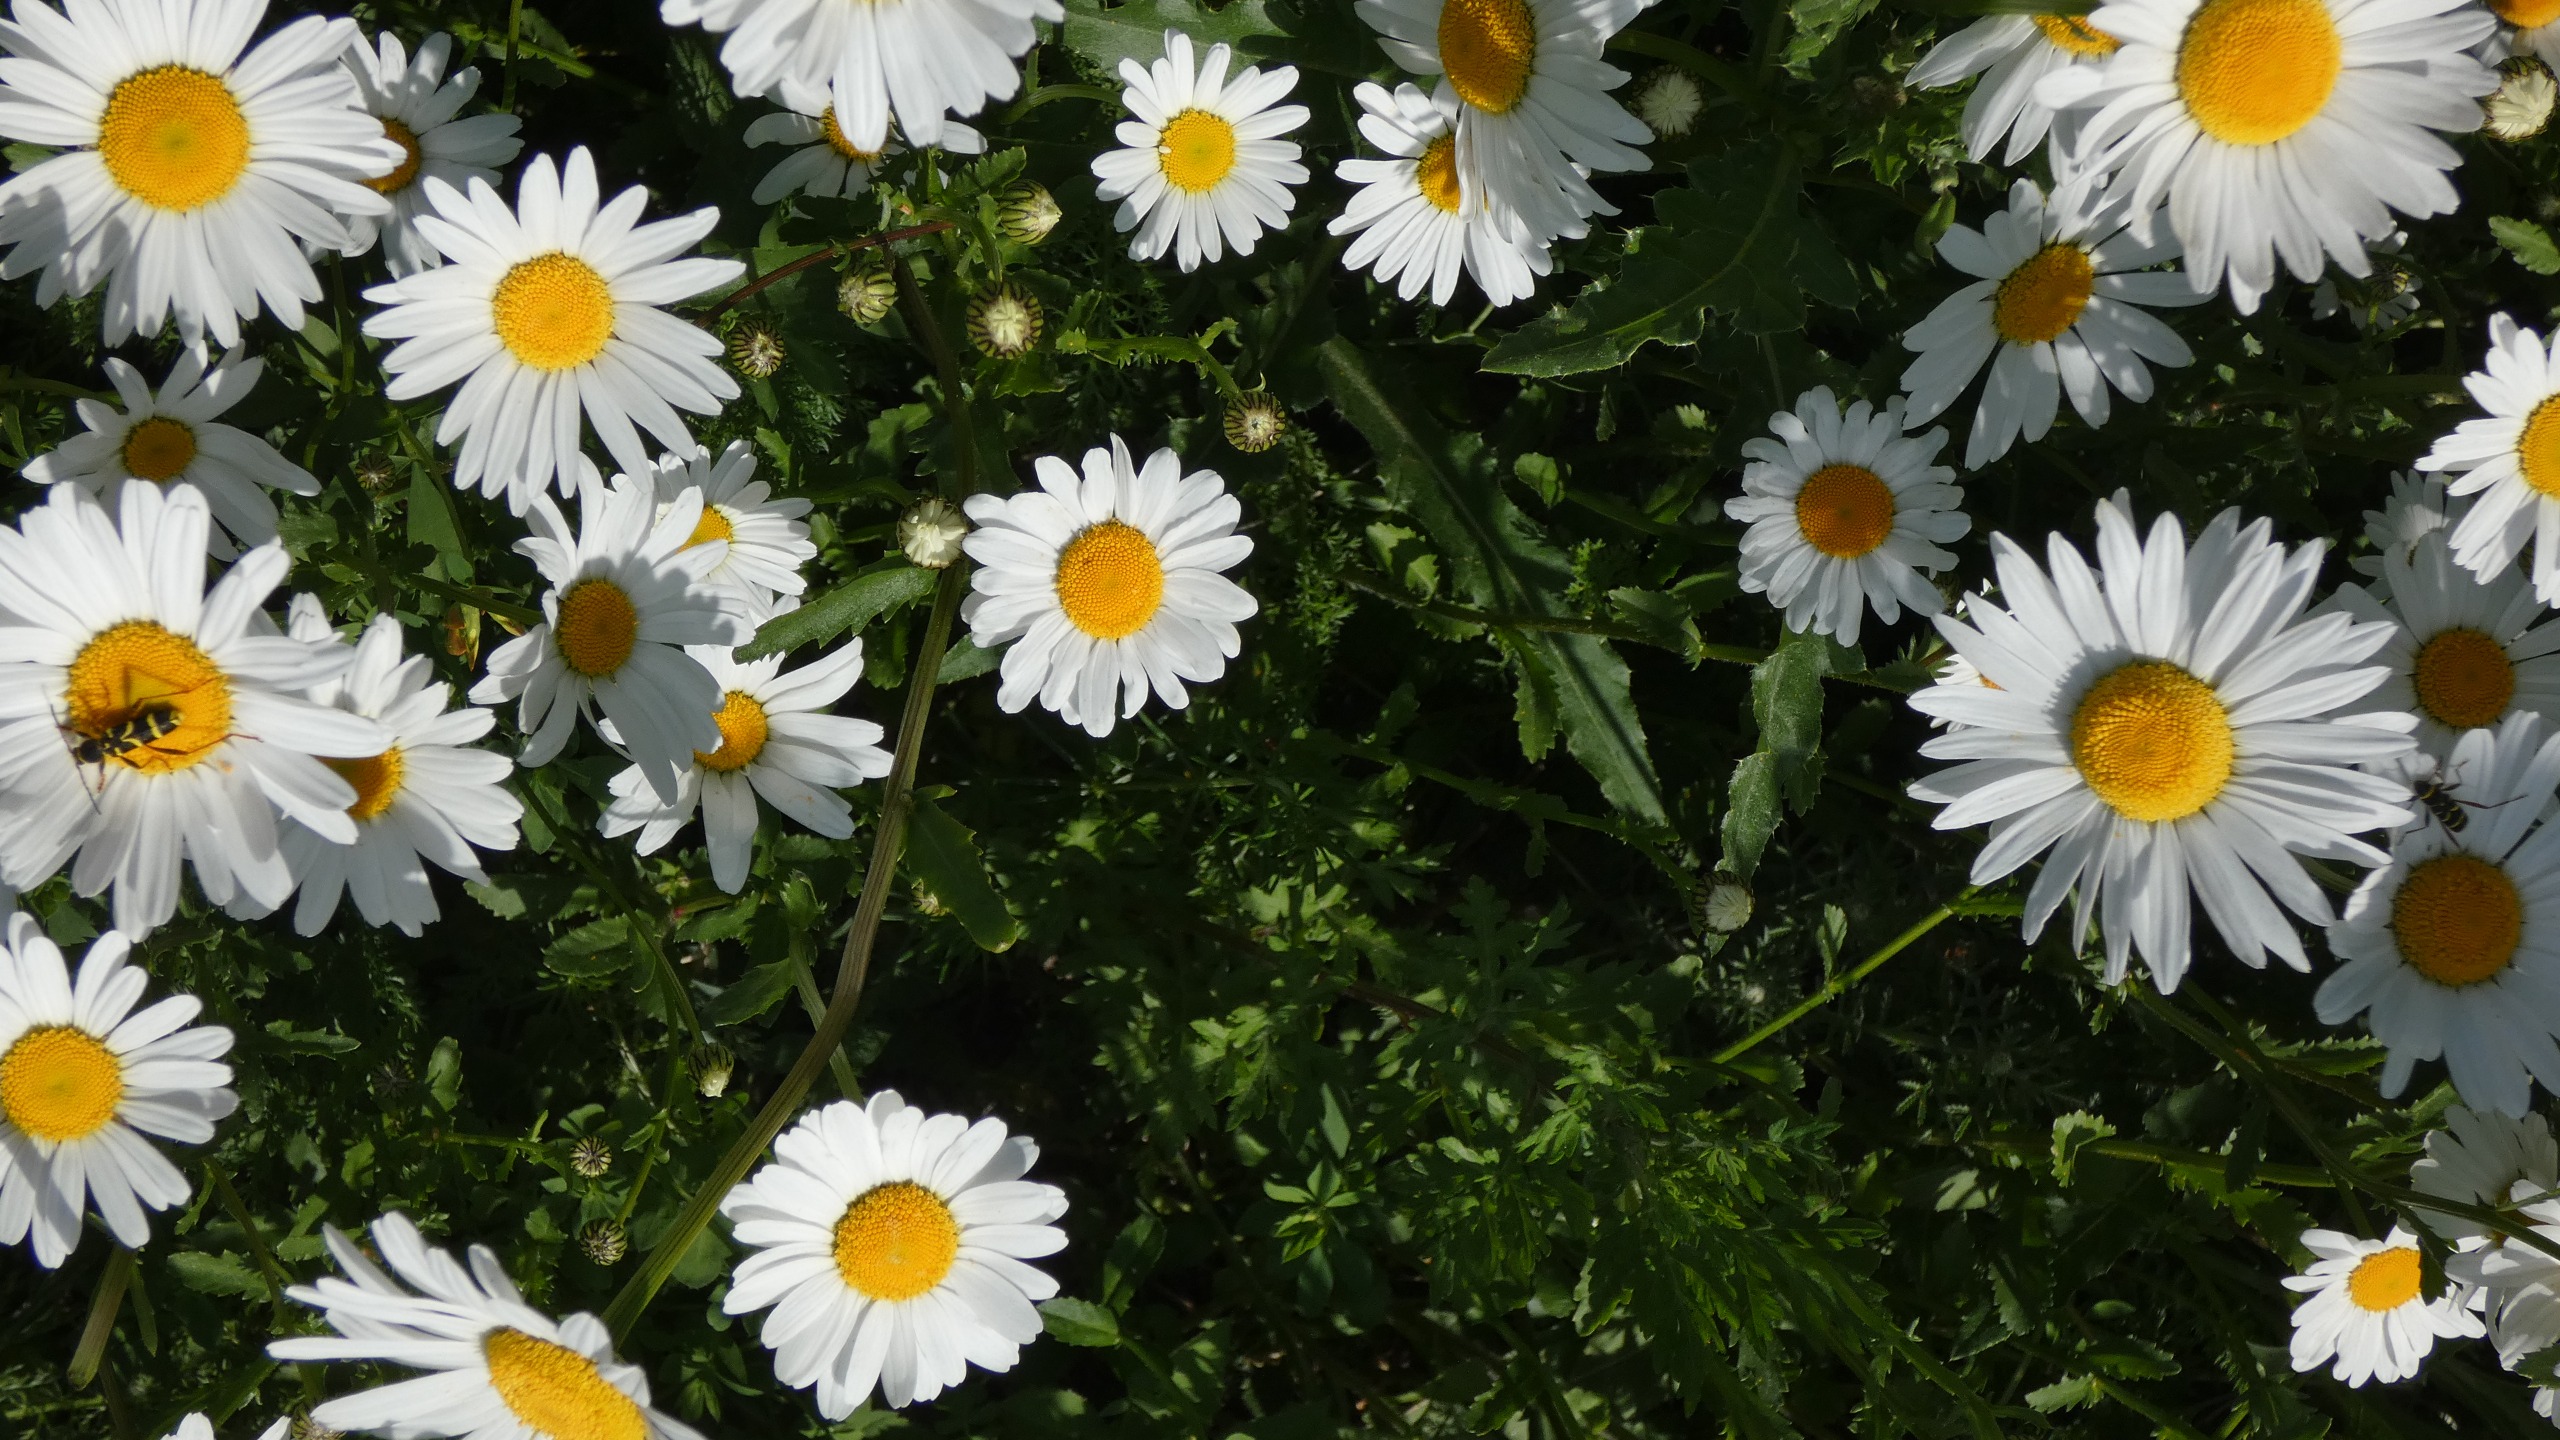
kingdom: Animalia
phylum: Arthropoda
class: Insecta
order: Coleoptera
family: Cerambycidae
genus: Clytus
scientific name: Clytus arietis
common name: Lille hvepsebuk
